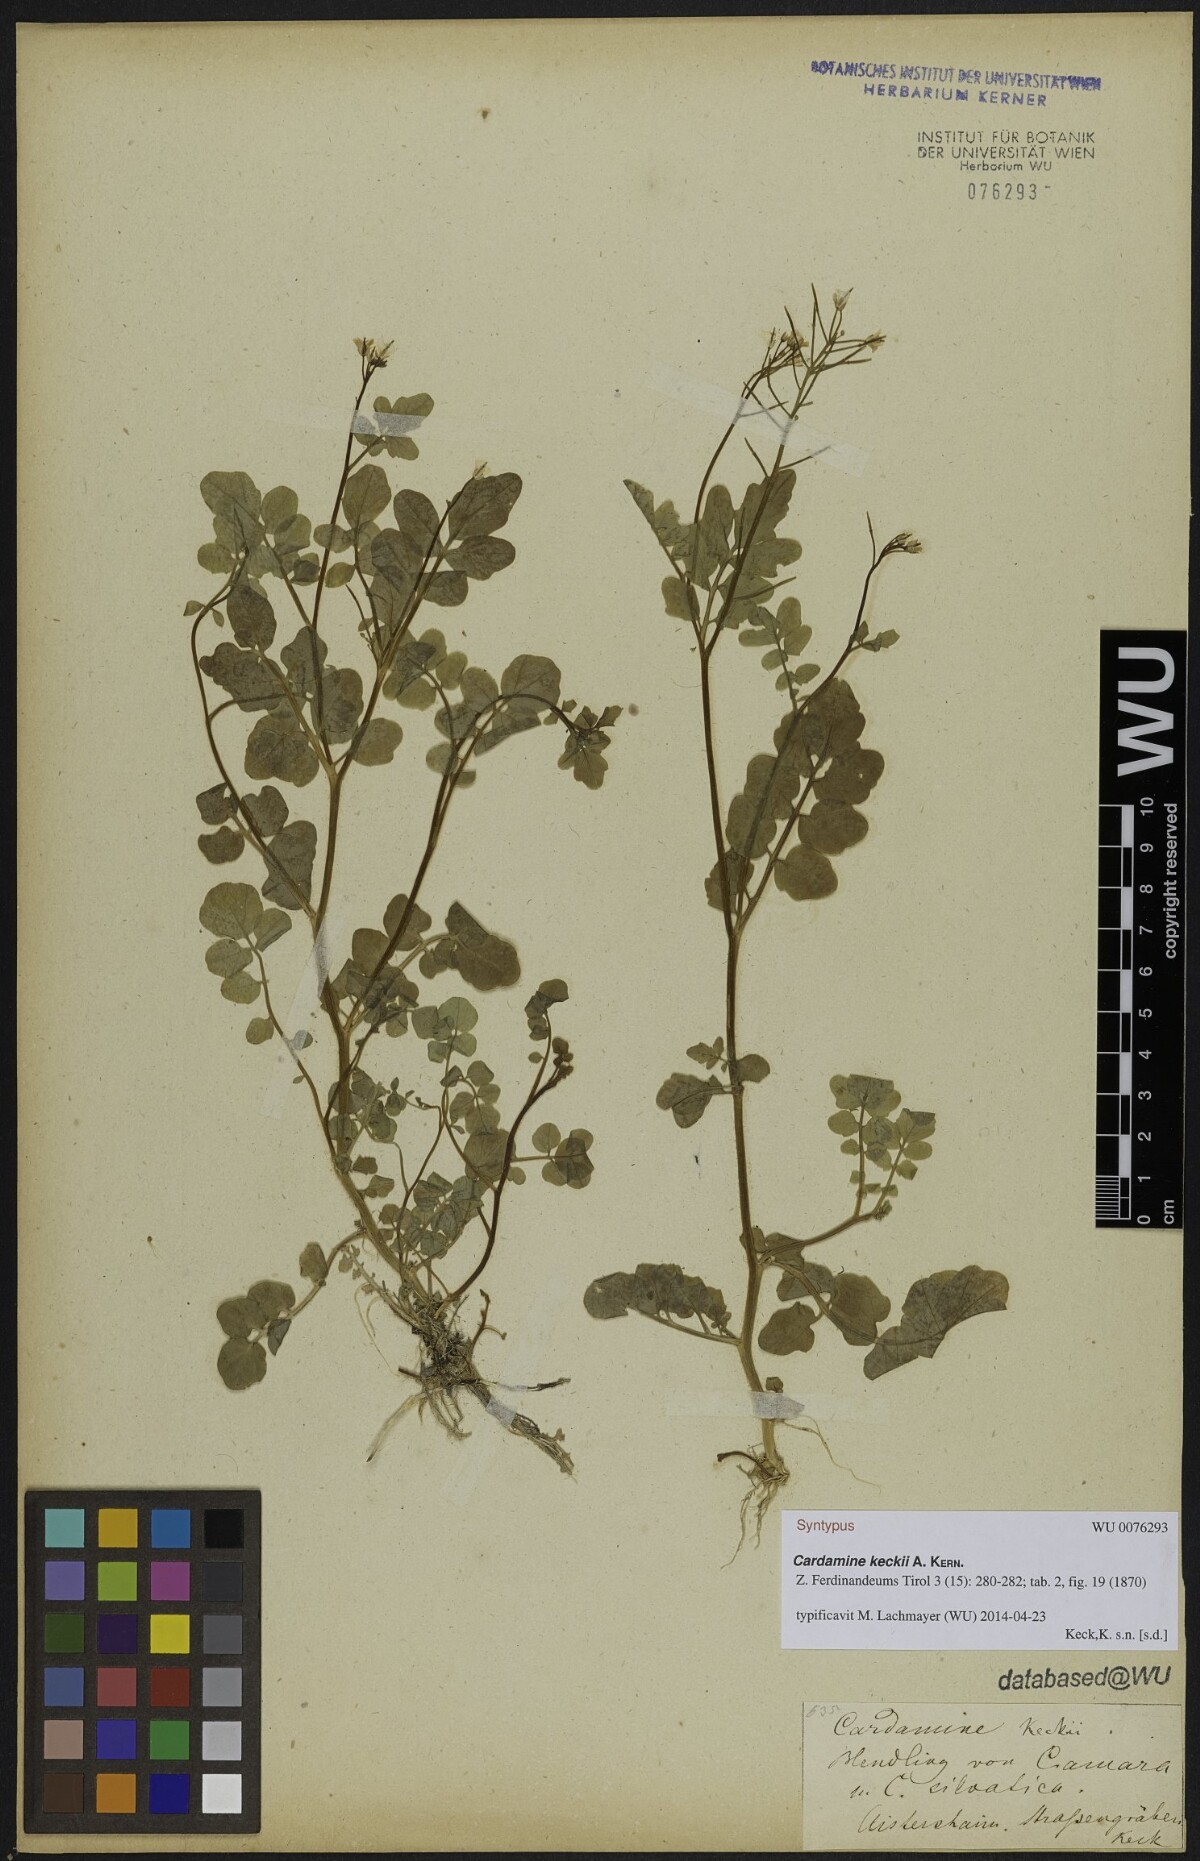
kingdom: Plantae
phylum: Tracheophyta
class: Magnoliopsida
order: Brassicales
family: Brassicaceae
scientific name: Brassicaceae
